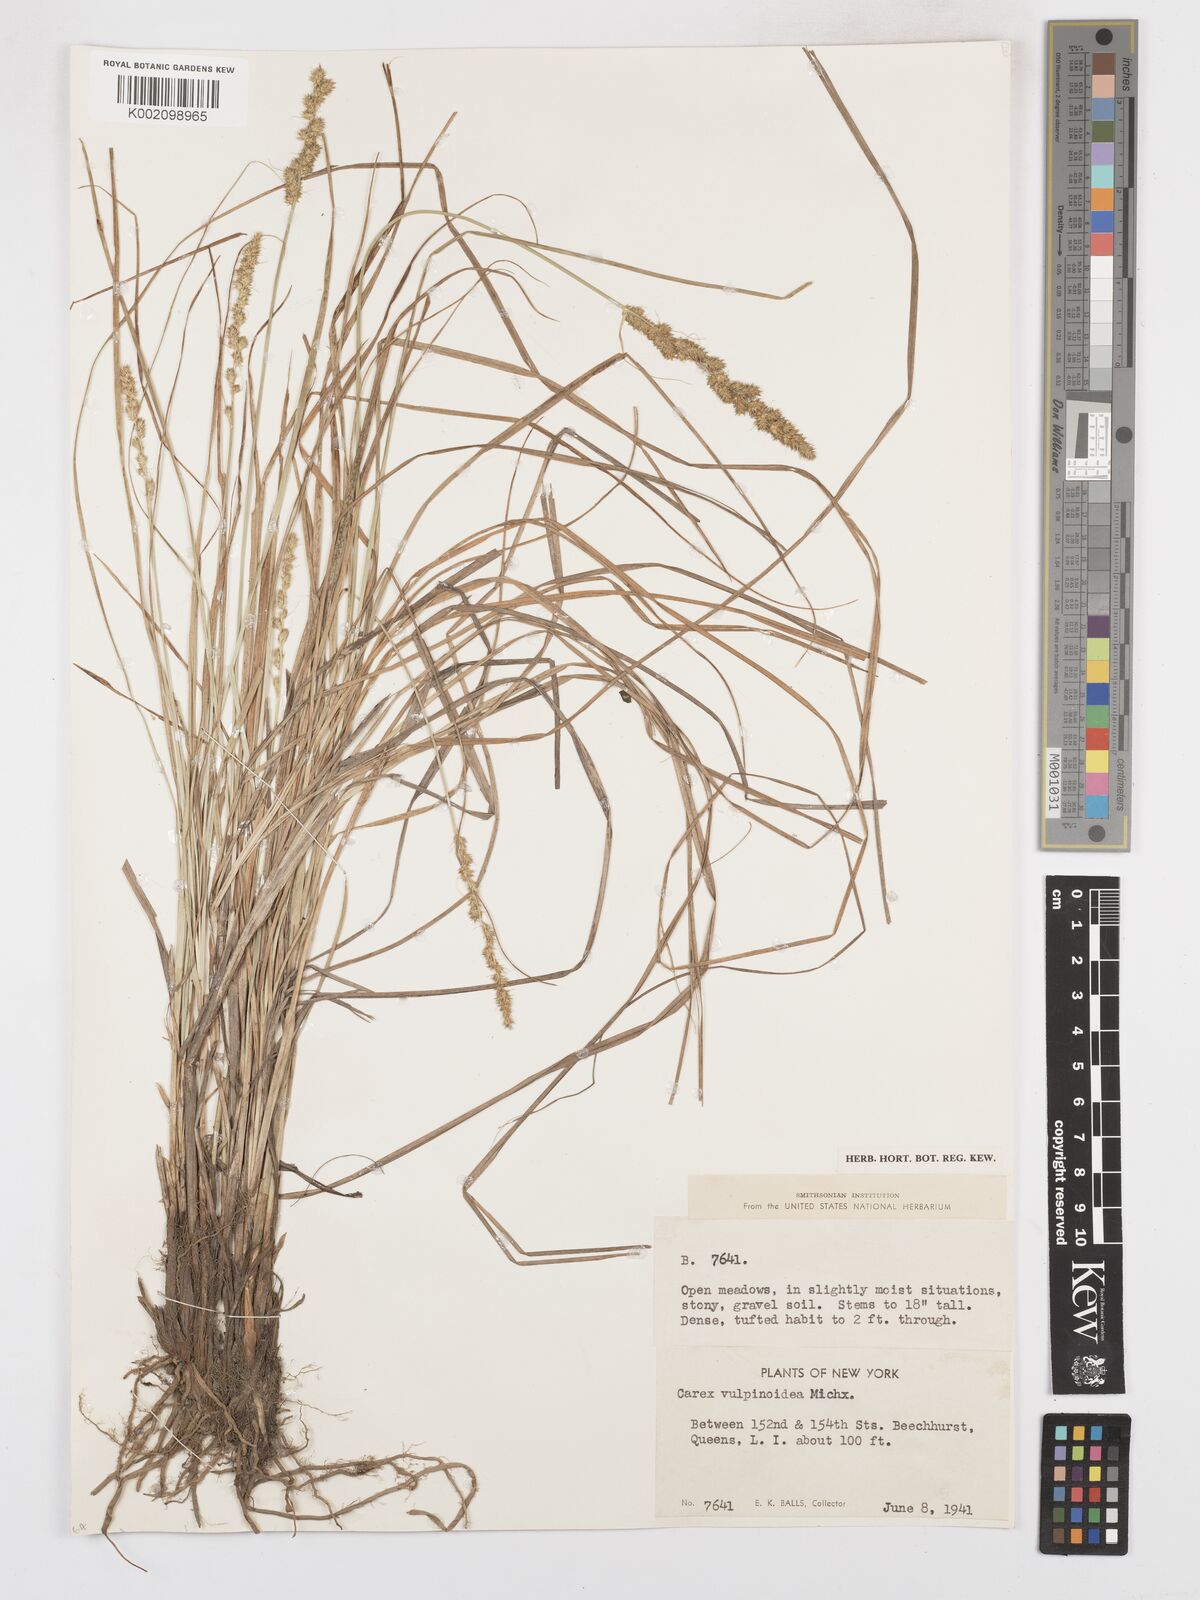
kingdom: Plantae
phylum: Tracheophyta
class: Liliopsida
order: Poales
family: Cyperaceae
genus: Carex
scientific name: Carex vulpinoidea
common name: American fox-sedge
